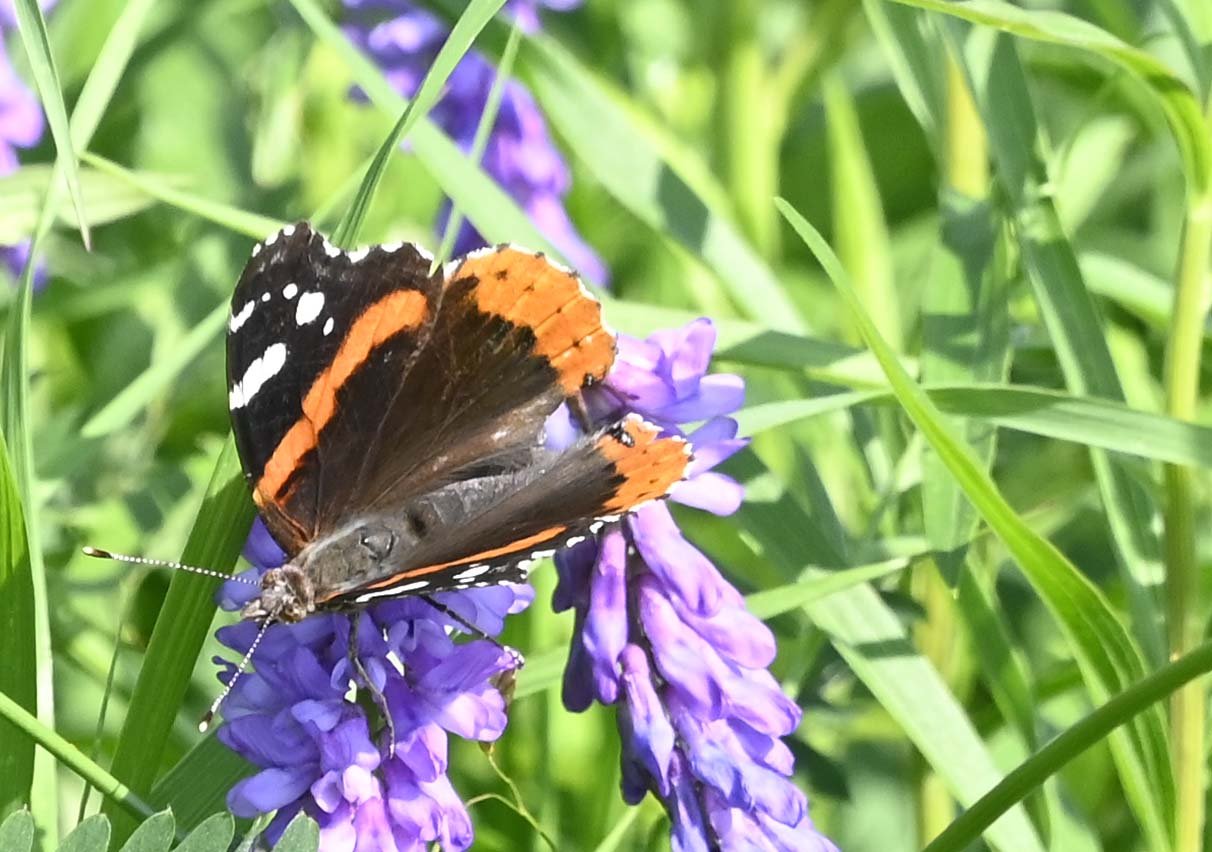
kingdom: Animalia
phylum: Arthropoda
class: Insecta
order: Lepidoptera
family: Nymphalidae
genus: Vanessa
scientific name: Vanessa atalanta
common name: Red Admiral
